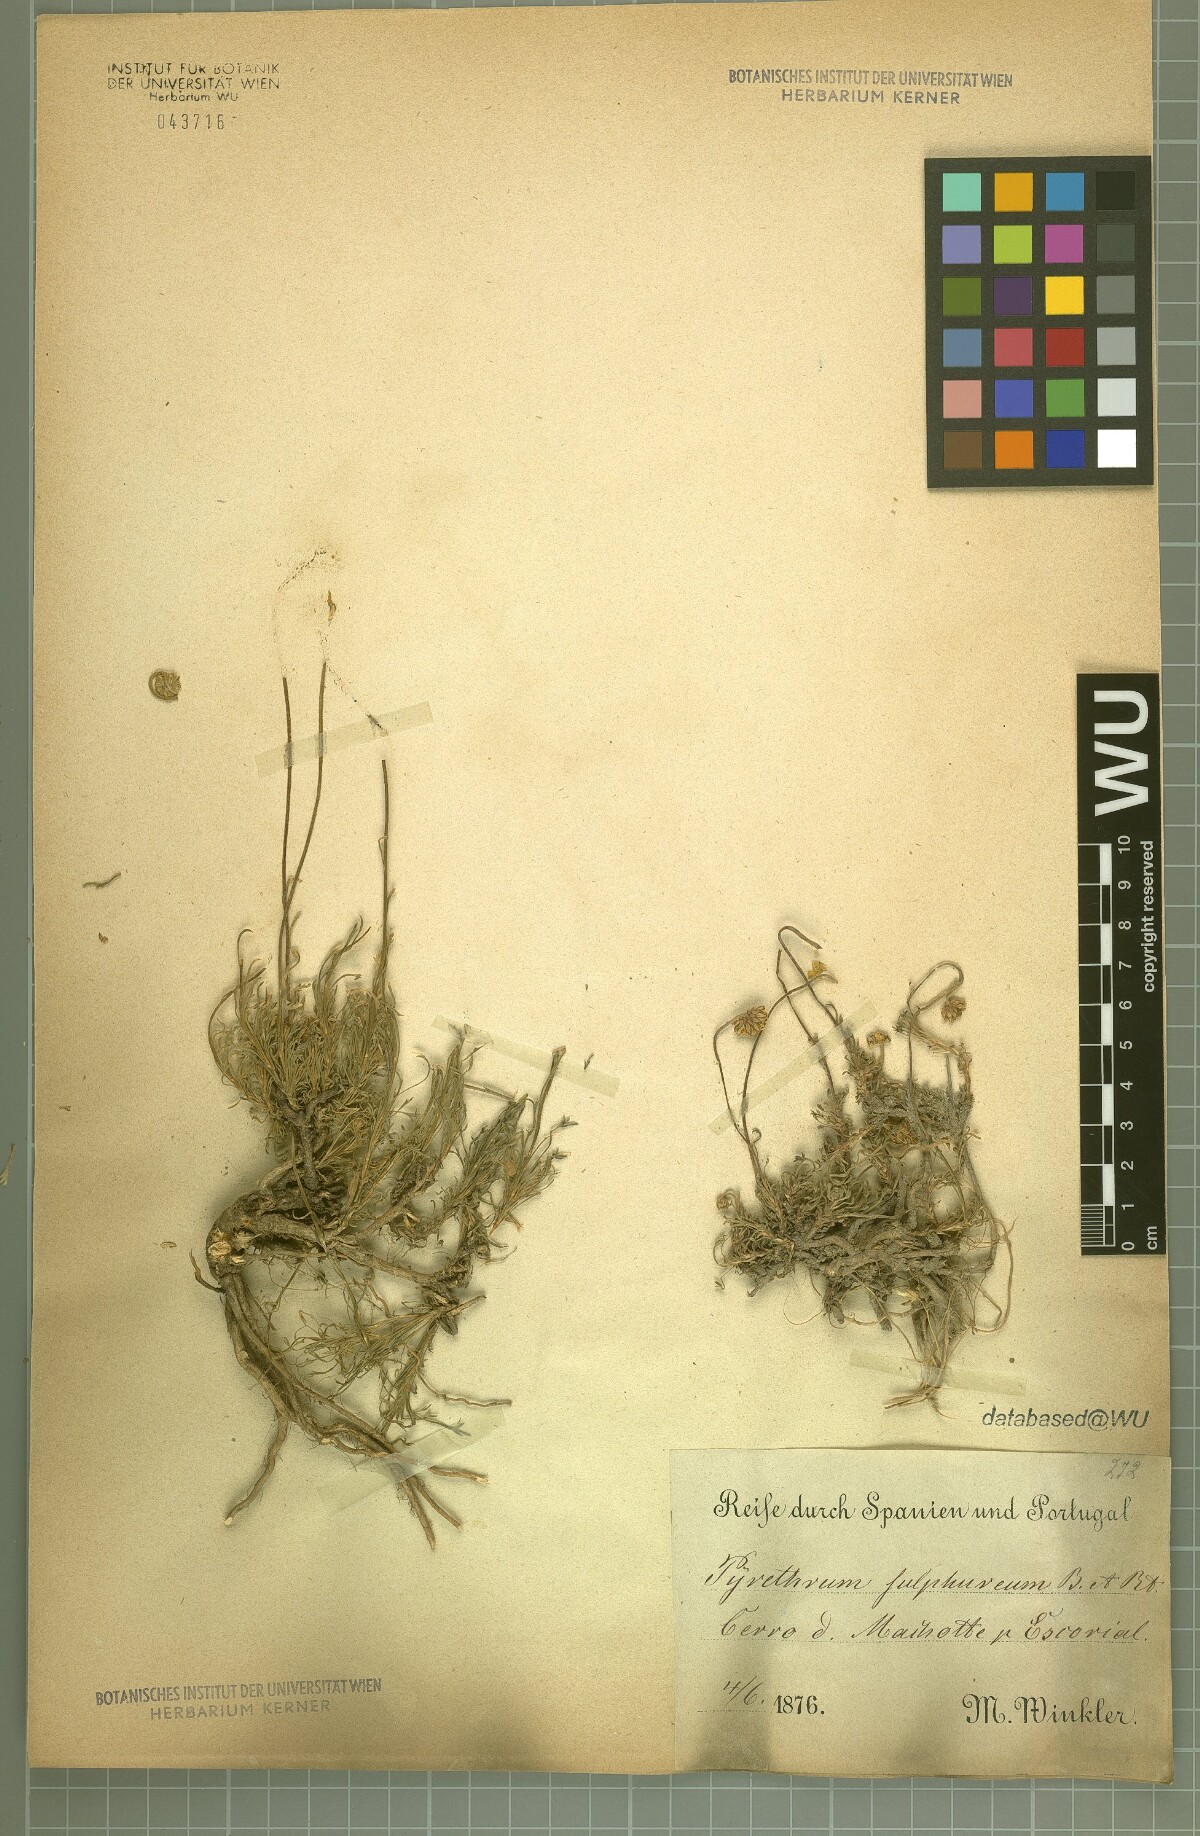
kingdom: Plantae
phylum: Tracheophyta
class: Magnoliopsida
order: Asterales
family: Asteraceae
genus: Leucanthemopsis
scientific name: Leucanthemopsis pallida
